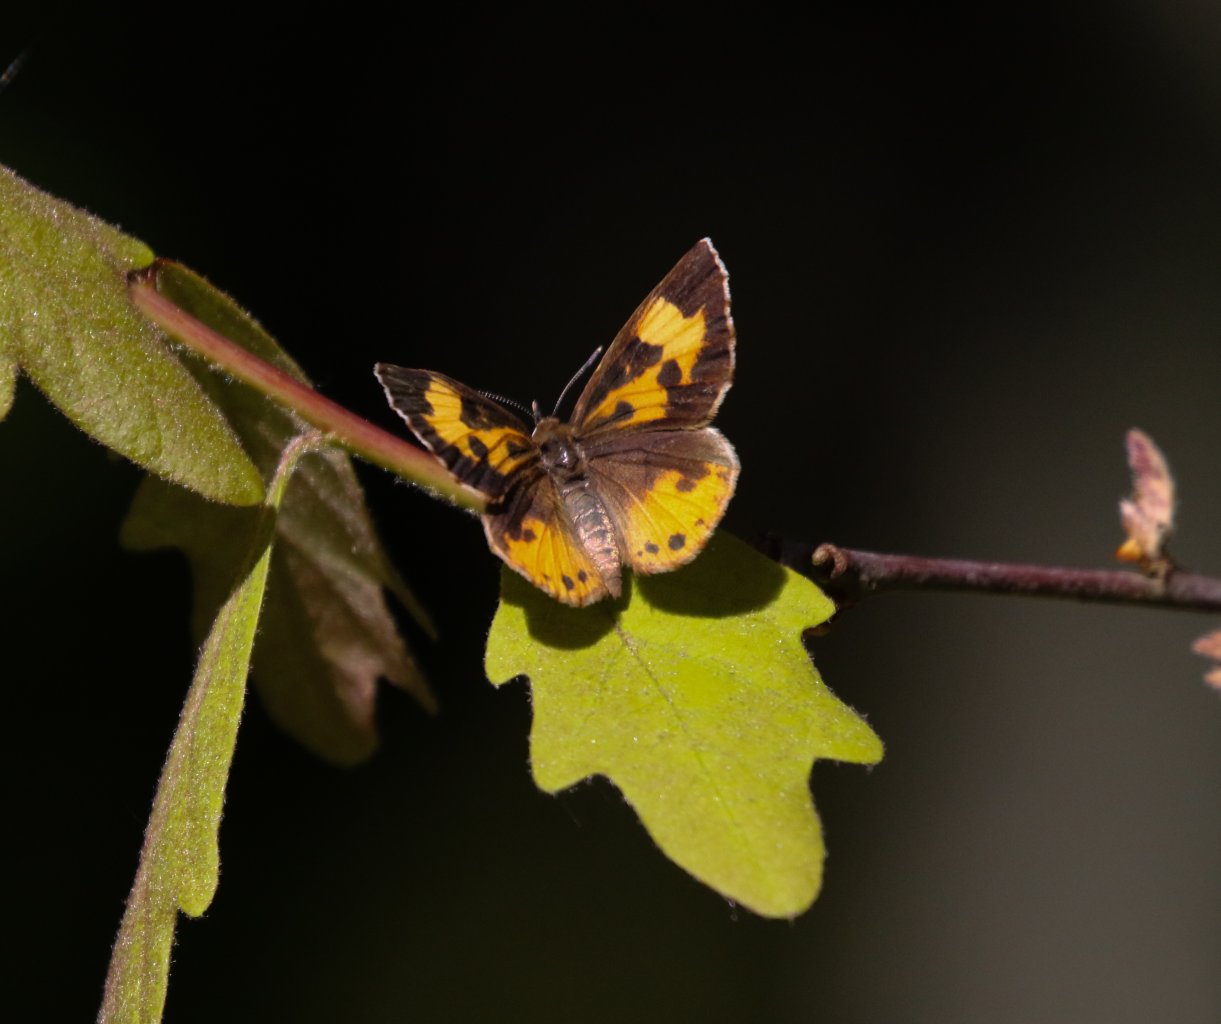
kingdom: Animalia
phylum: Arthropoda
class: Insecta
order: Lepidoptera
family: Lycaenidae
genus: Feniseca
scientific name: Feniseca tarquinius
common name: Harvester
